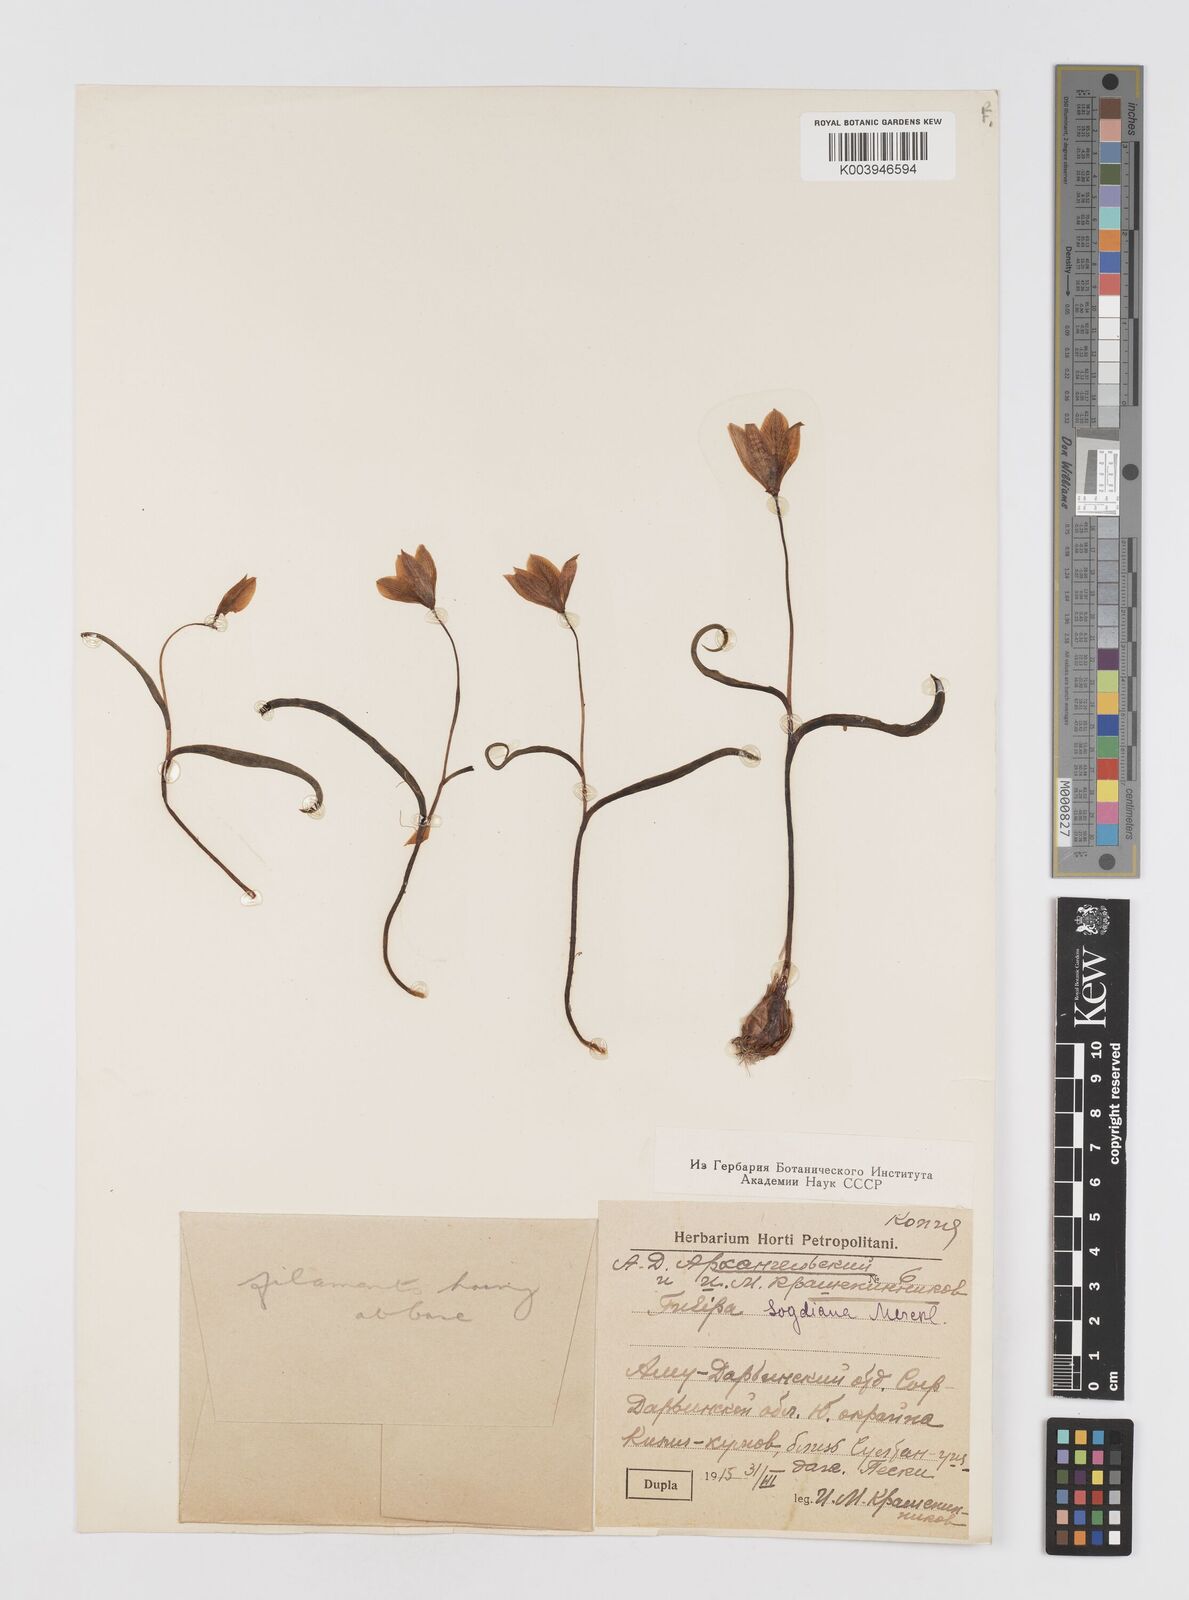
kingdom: Plantae
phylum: Tracheophyta
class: Liliopsida
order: Liliales
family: Liliaceae
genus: Tulipa
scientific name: Tulipa sylvestris
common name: Wild tulip
